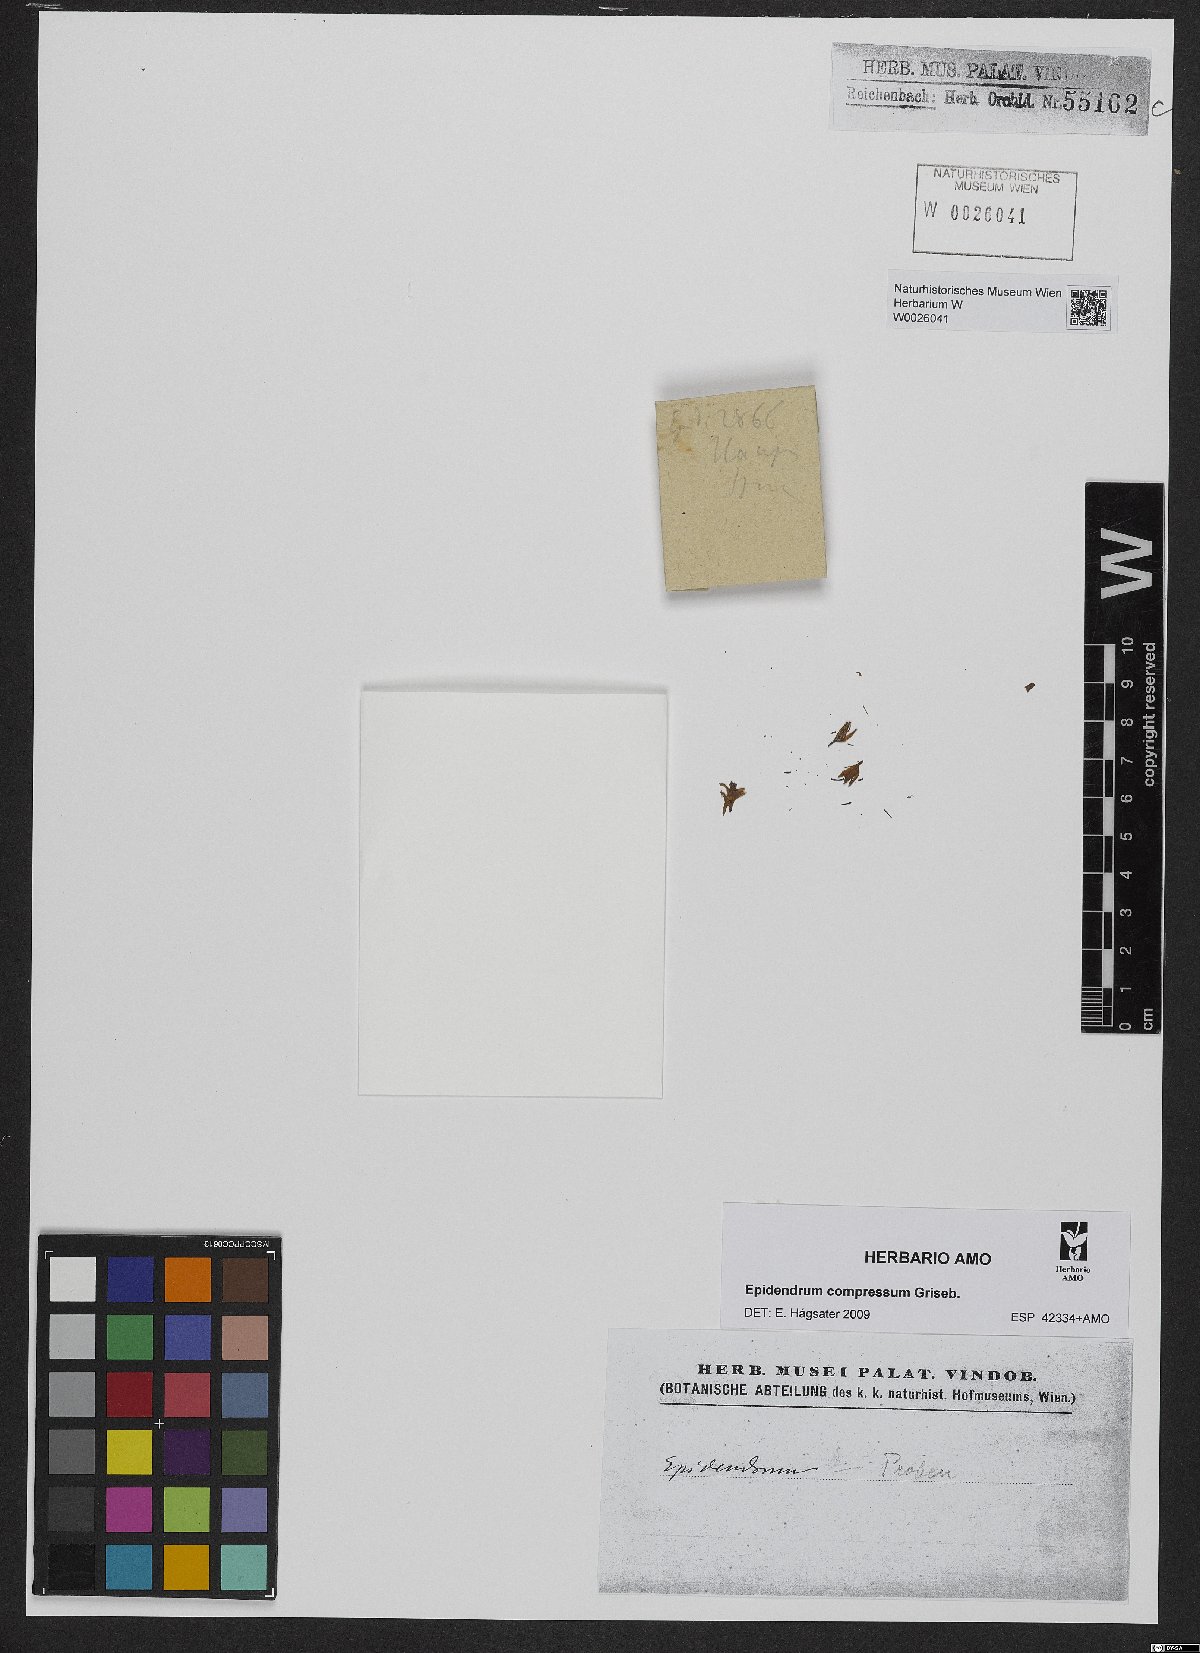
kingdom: Plantae
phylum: Tracheophyta
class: Liliopsida
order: Asparagales
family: Orchidaceae
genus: Epidendrum
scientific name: Epidendrum compressum
